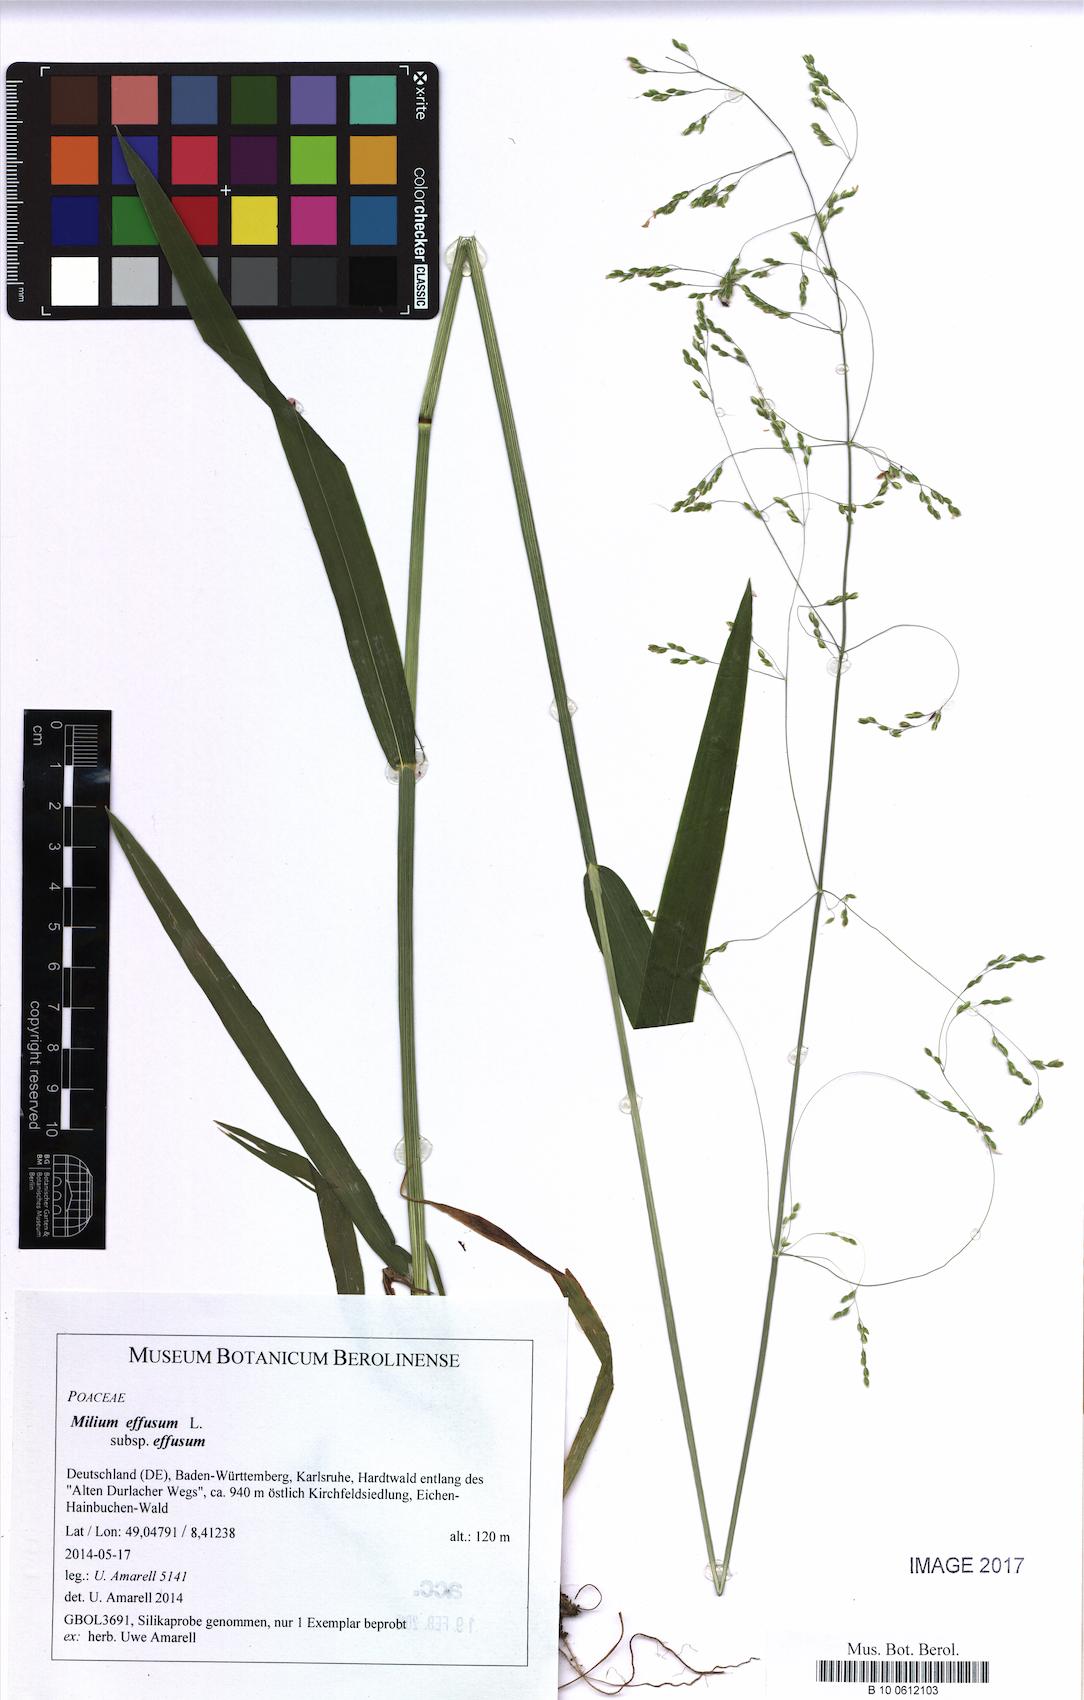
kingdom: Plantae
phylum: Tracheophyta
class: Liliopsida
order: Poales
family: Poaceae
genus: Milium
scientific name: Milium effusum
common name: Wood millet
